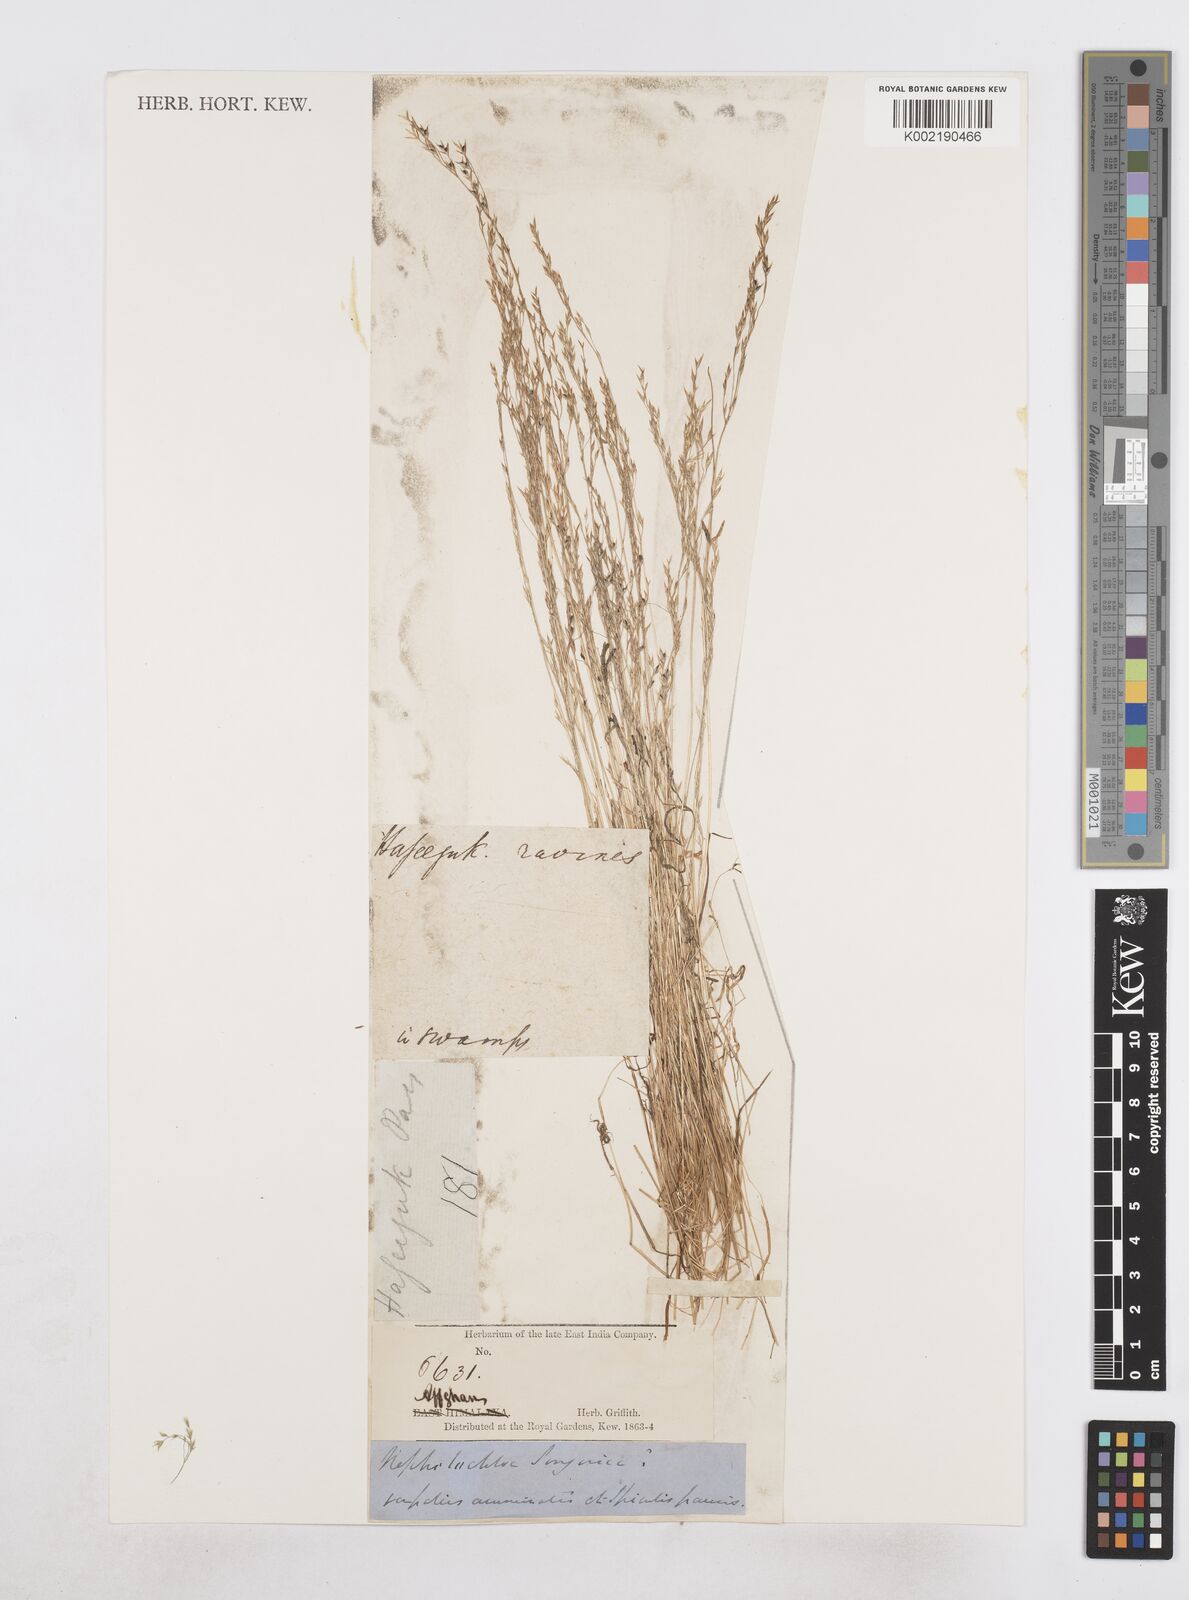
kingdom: Plantae
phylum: Tracheophyta
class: Liliopsida
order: Poales
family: Poaceae
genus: Poa
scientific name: Poa diaphora
